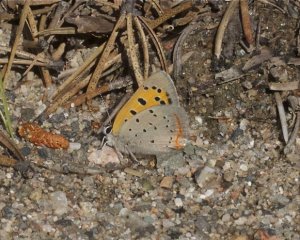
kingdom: Animalia
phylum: Arthropoda
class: Insecta
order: Lepidoptera
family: Lycaenidae
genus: Lycaena
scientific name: Lycaena phlaeas
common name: American Copper
